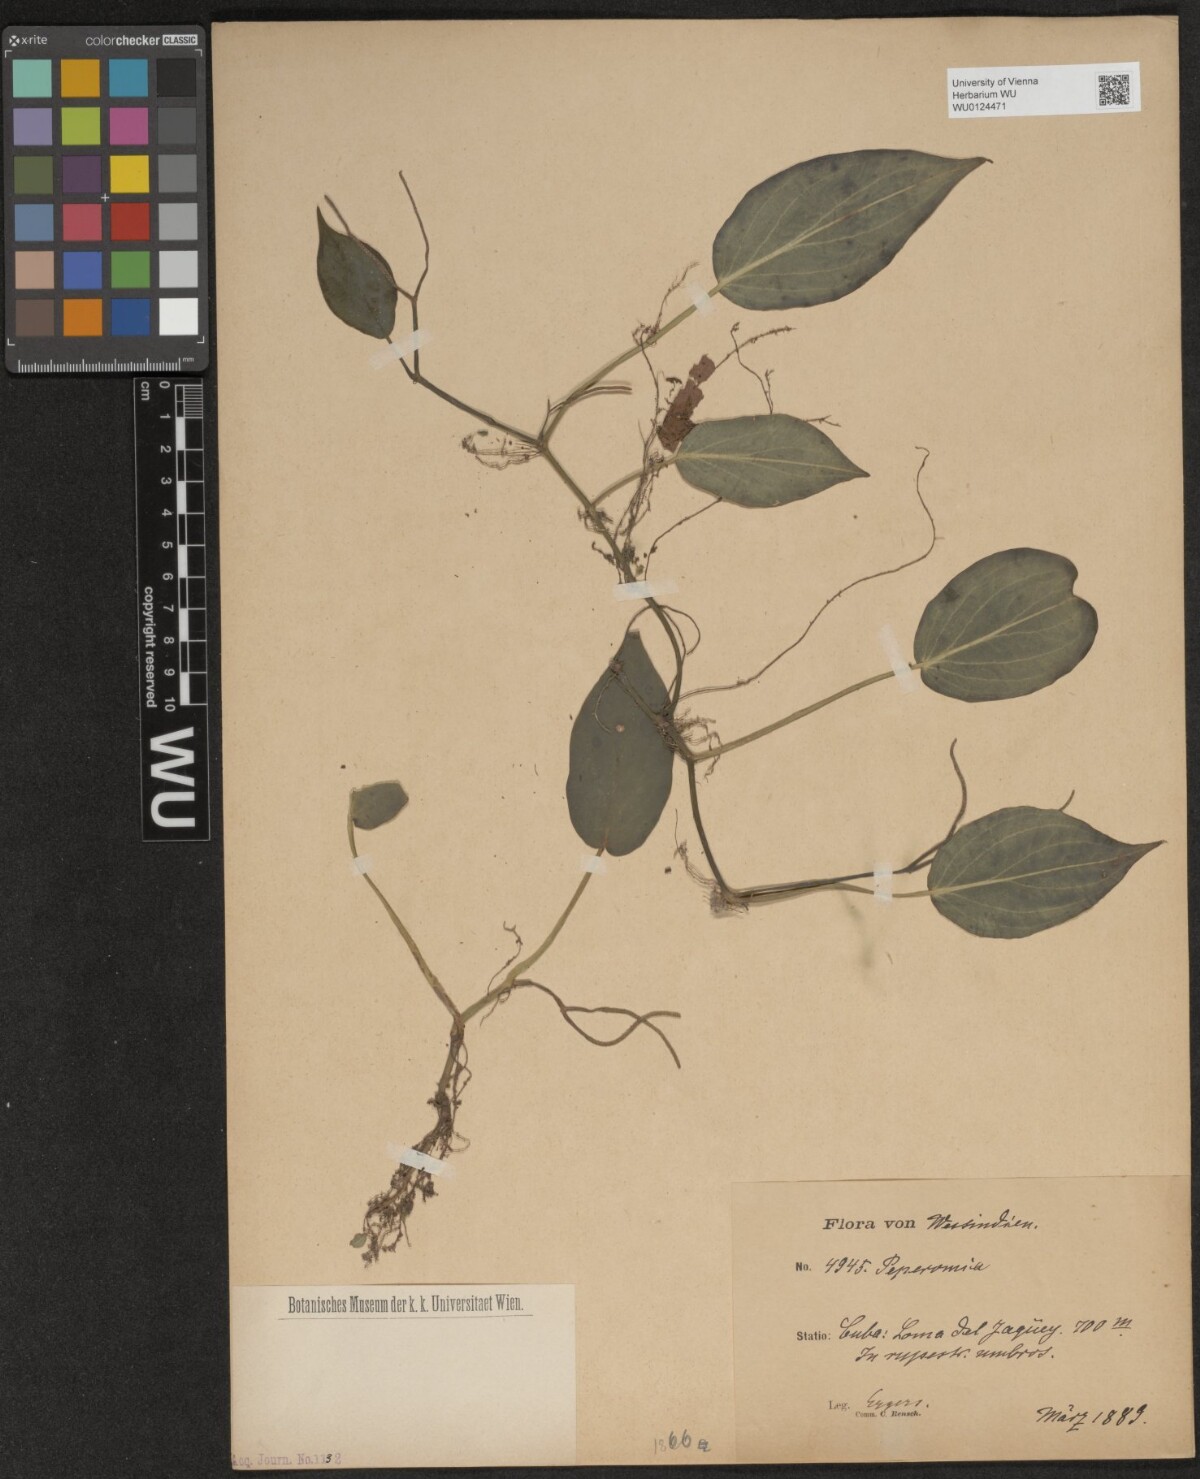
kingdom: Plantae
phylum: Tracheophyta
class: Magnoliopsida
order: Piperales
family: Piperaceae
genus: Peperomia
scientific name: Peperomia
